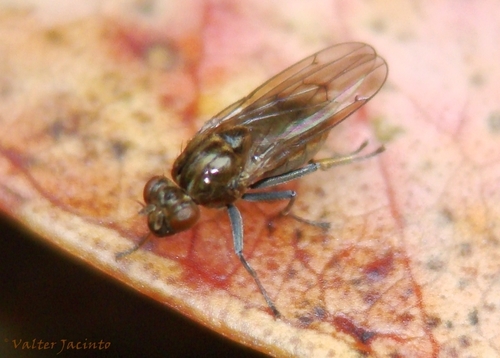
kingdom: Animalia
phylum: Arthropoda
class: Insecta
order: Diptera
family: Ephydridae
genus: Parydra
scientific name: Parydra coarctata
